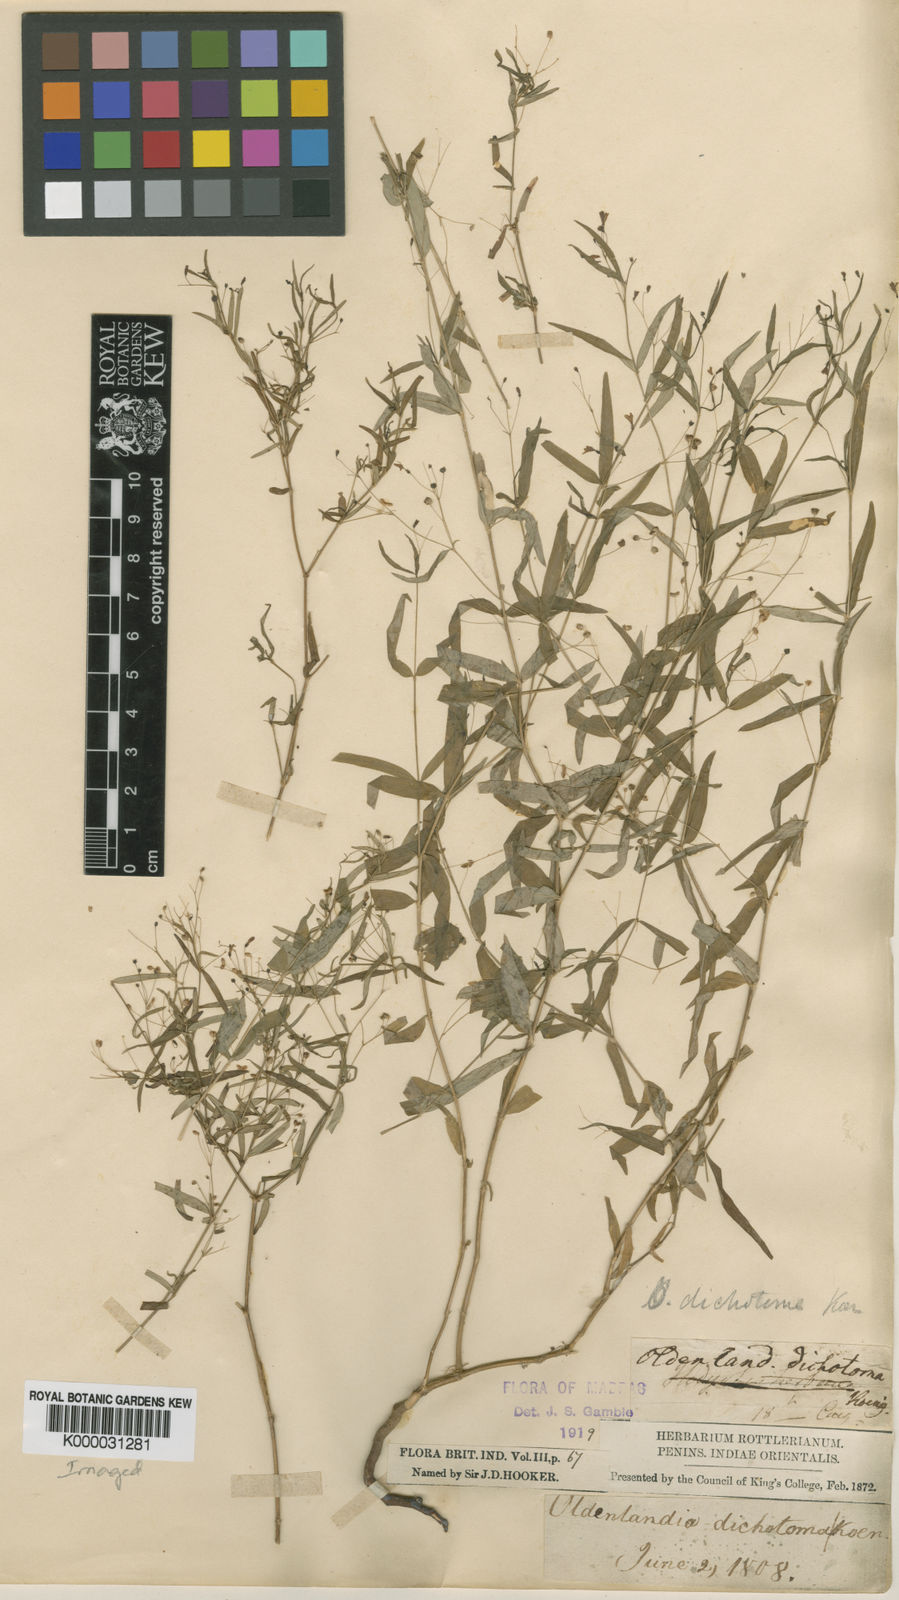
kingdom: Plantae
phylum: Tracheophyta
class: Magnoliopsida
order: Gentianales
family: Rubiaceae
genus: Oldenlandia
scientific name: Oldenlandia affinis
